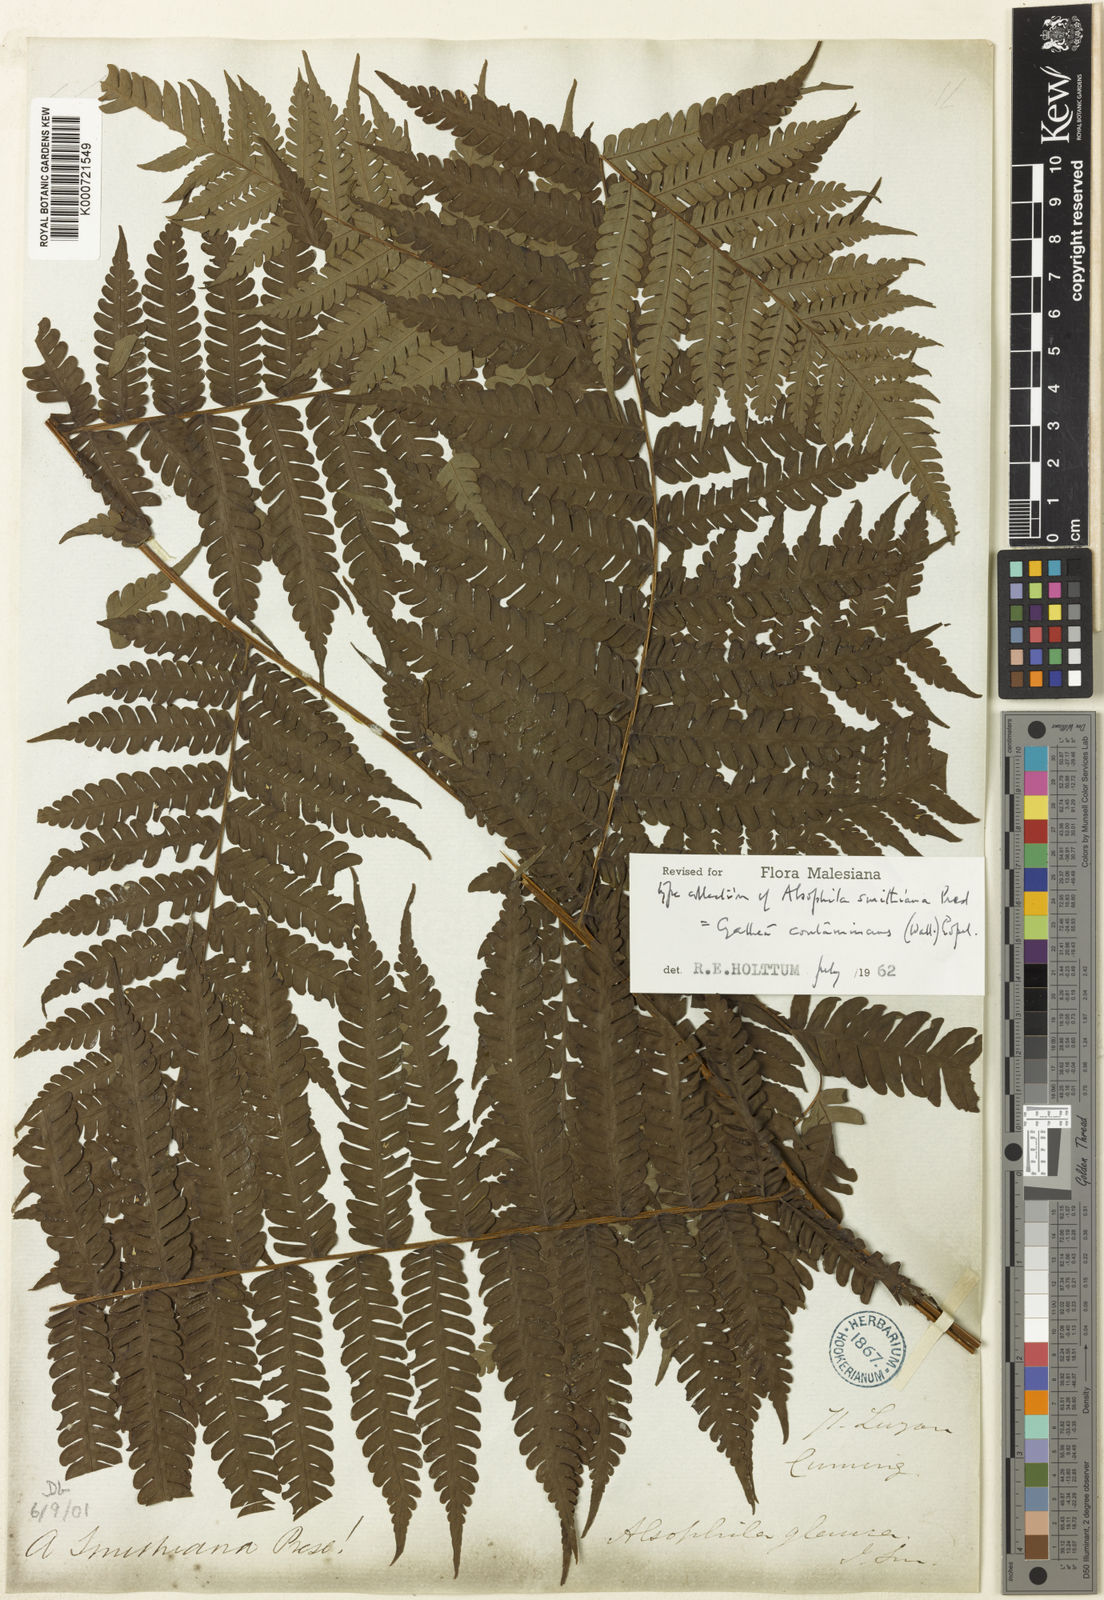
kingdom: Plantae
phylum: Tracheophyta
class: Polypodiopsida
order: Cyatheales
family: Cyatheaceae
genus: Sphaeropteris
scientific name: Sphaeropteris glauca
